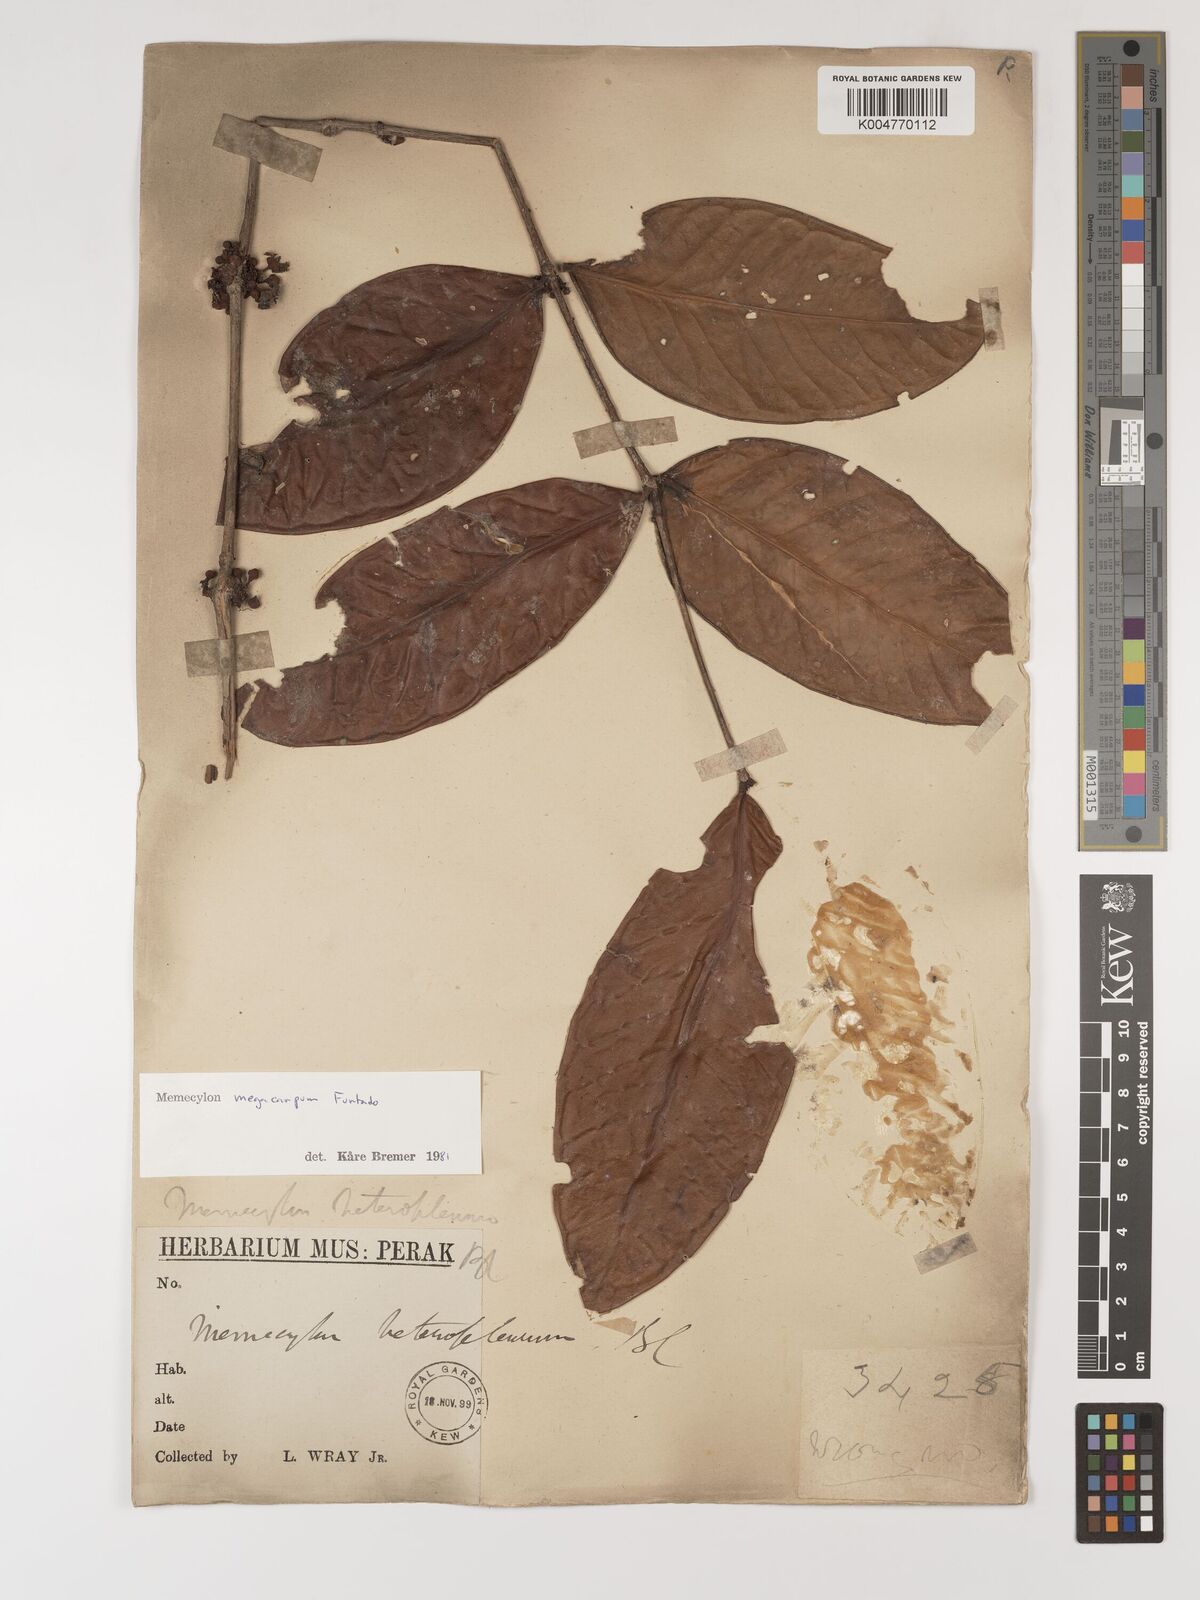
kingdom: Plantae
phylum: Tracheophyta
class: Magnoliopsida
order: Myrtales
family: Melastomataceae
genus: Memecylon
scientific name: Memecylon megacarpum
